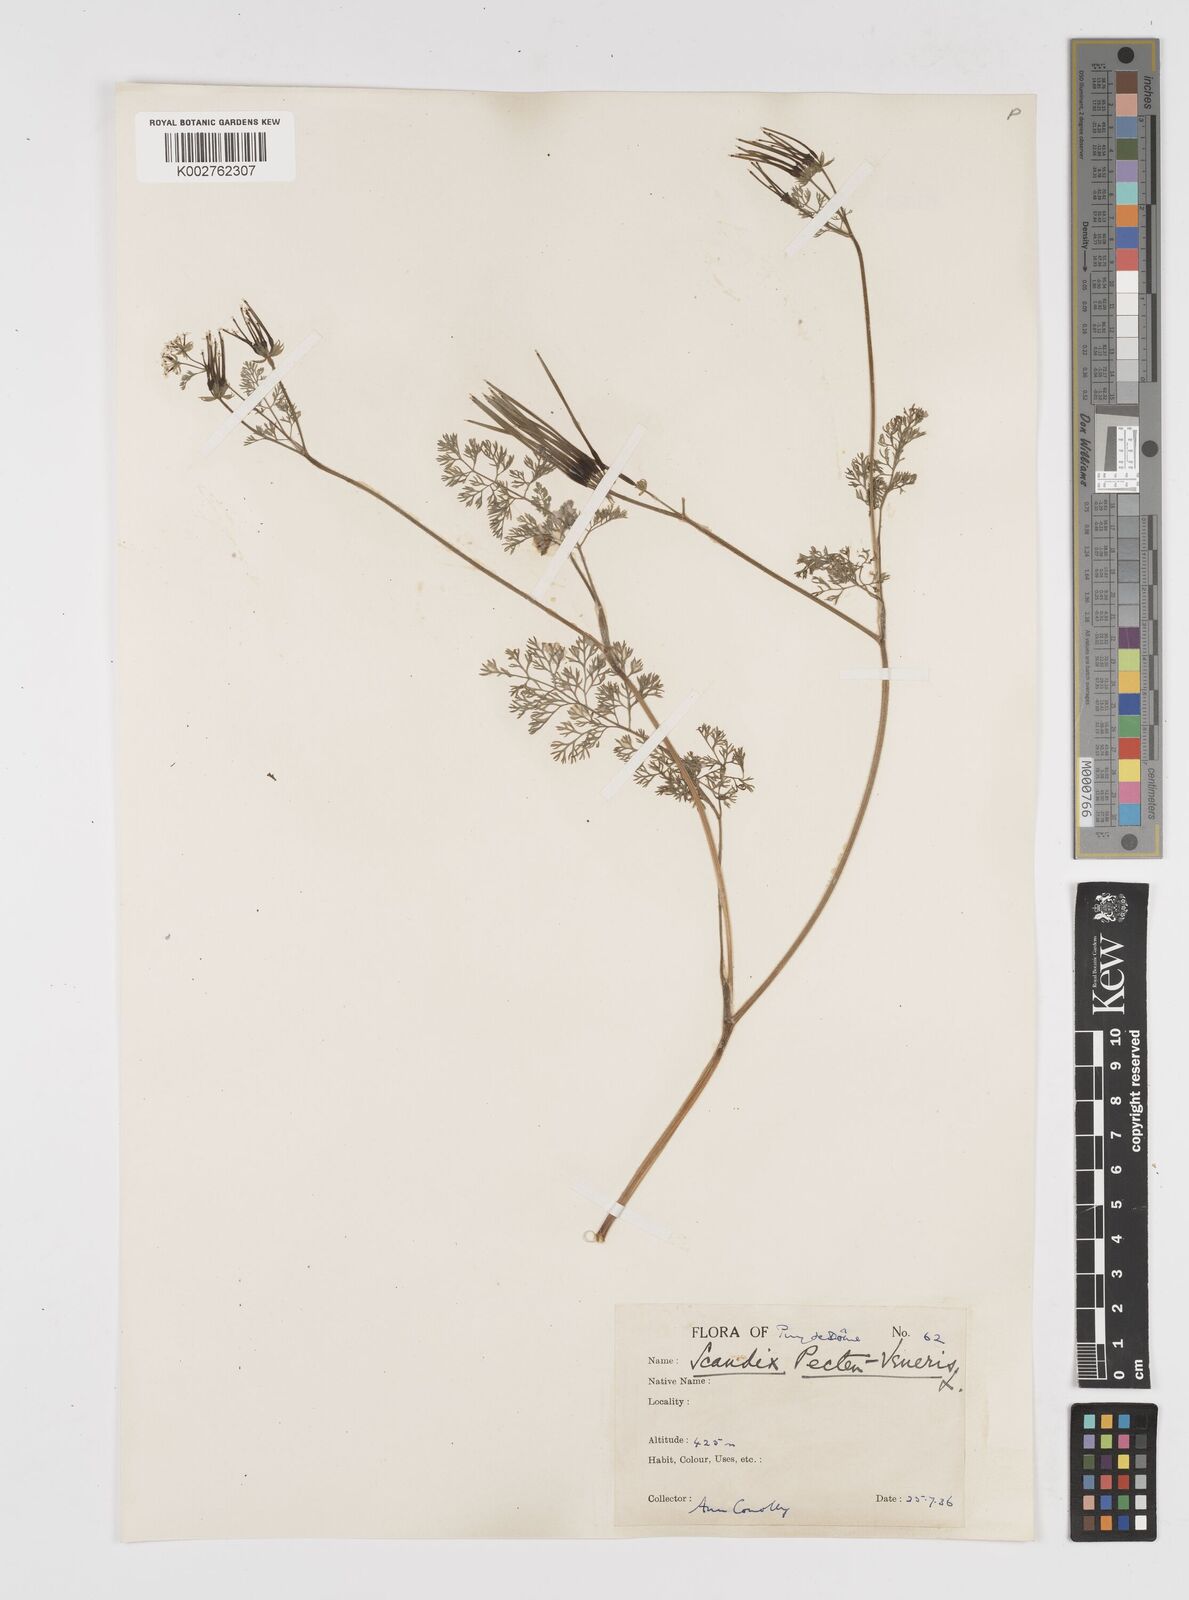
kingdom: Plantae
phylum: Tracheophyta
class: Magnoliopsida
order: Apiales
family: Apiaceae
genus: Scandix
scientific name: Scandix pecten-veneris
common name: Shepherd's-needle
